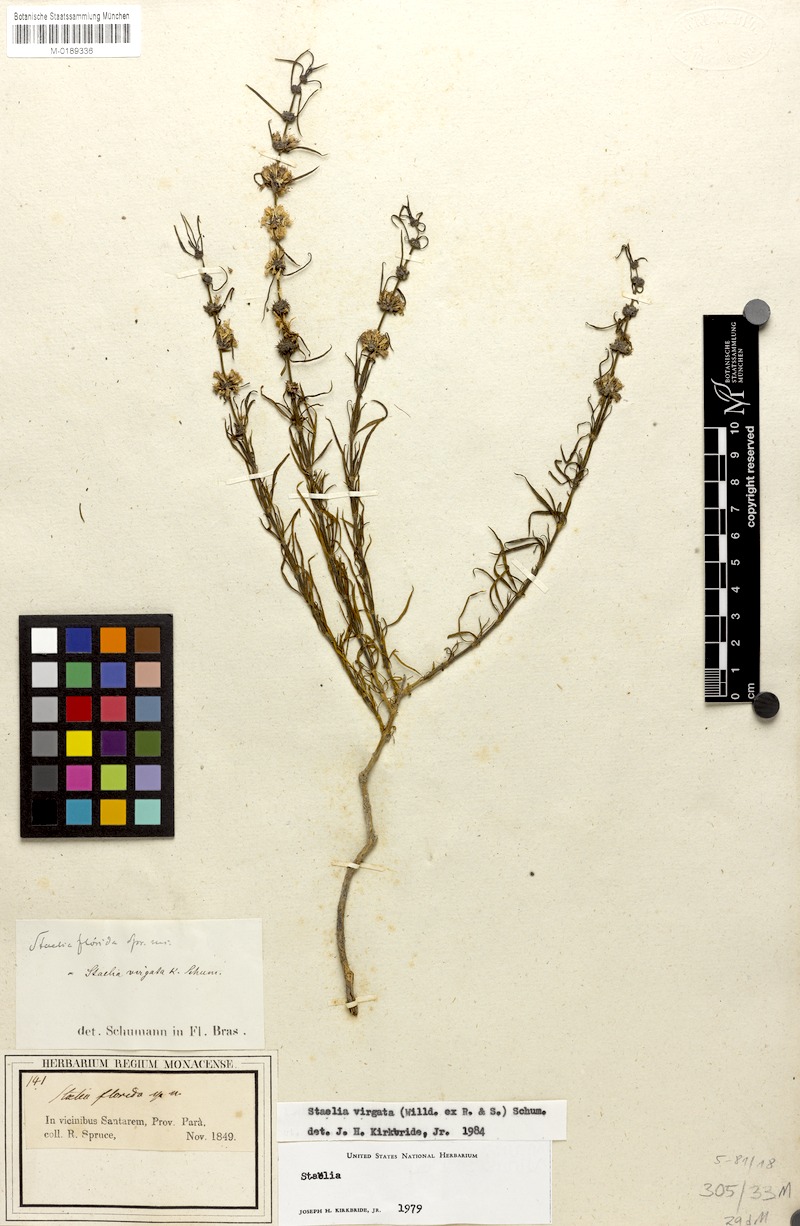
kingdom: Plantae
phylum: Tracheophyta
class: Magnoliopsida
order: Gentianales
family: Rubiaceae
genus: Staelia
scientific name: Staelia virgata
